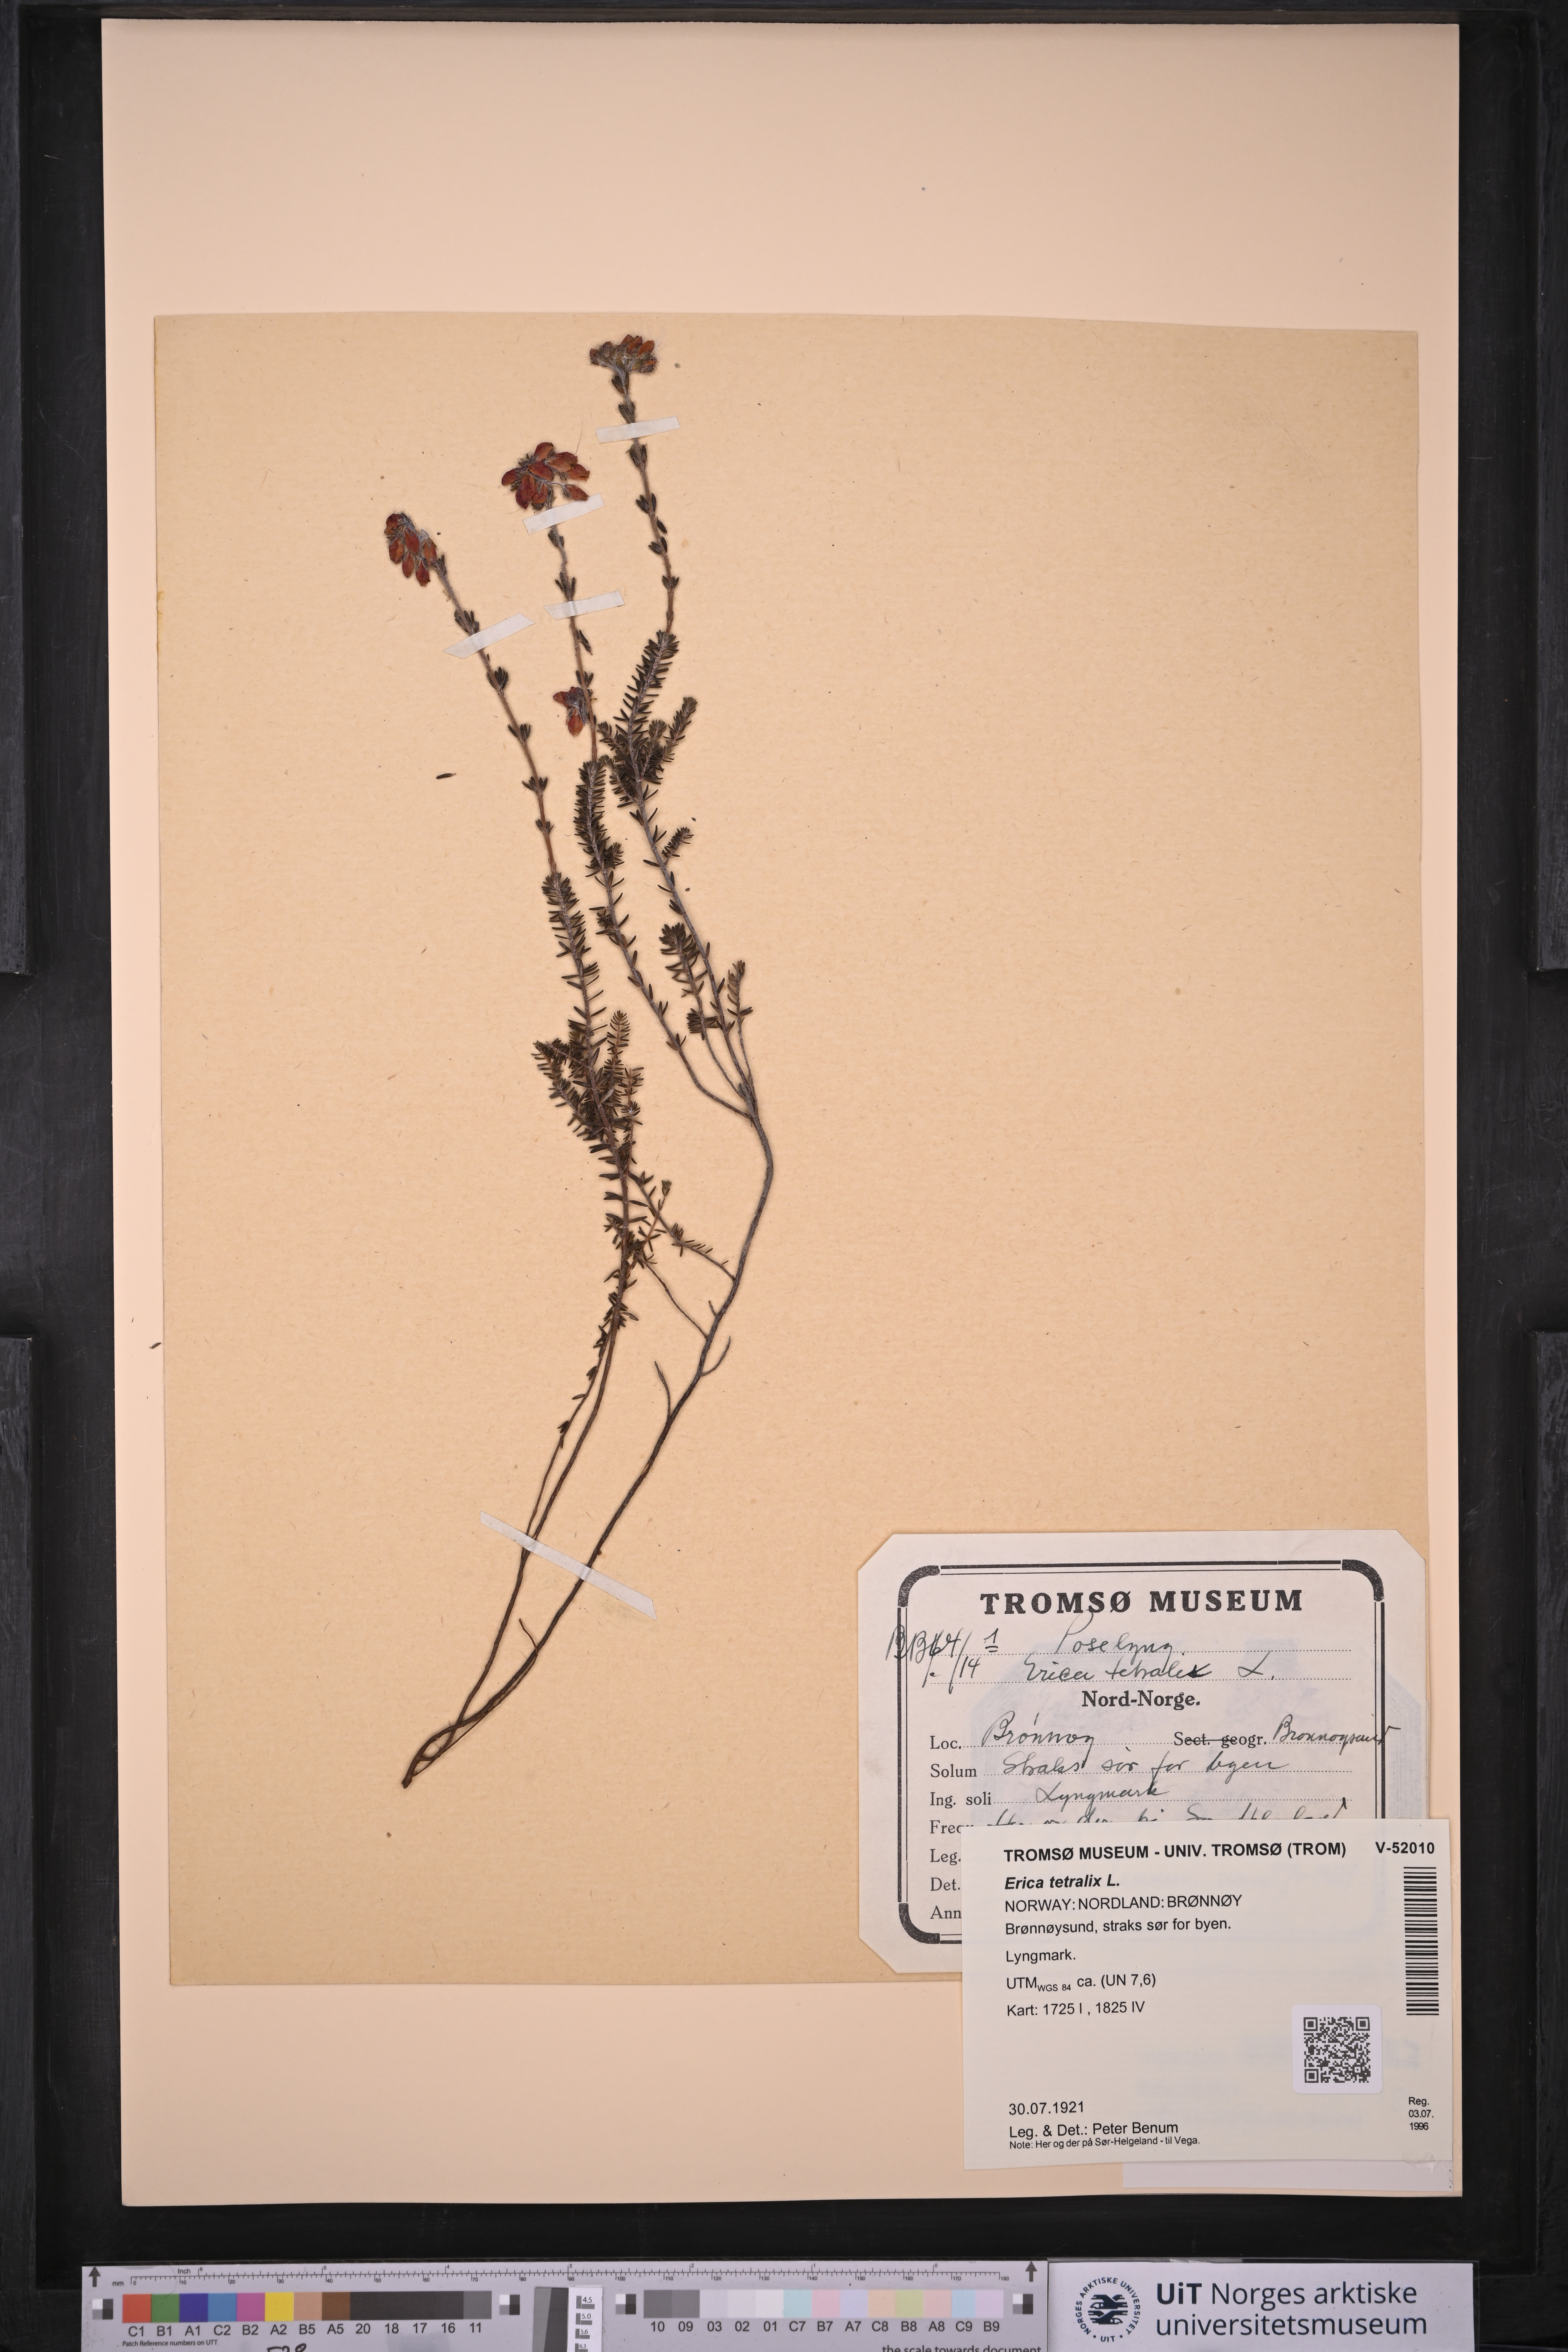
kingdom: Plantae
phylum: Tracheophyta
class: Magnoliopsida
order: Ericales
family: Ericaceae
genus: Erica
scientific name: Erica tetralix
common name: Cross-leaved heath
